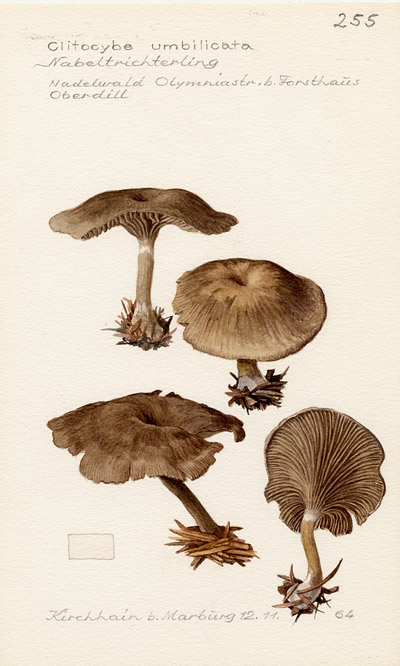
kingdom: Fungi
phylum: Basidiomycota
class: Agaricomycetes
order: Agaricales
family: Tricholomataceae
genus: Clitocybe
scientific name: Clitocybe umbilicata
